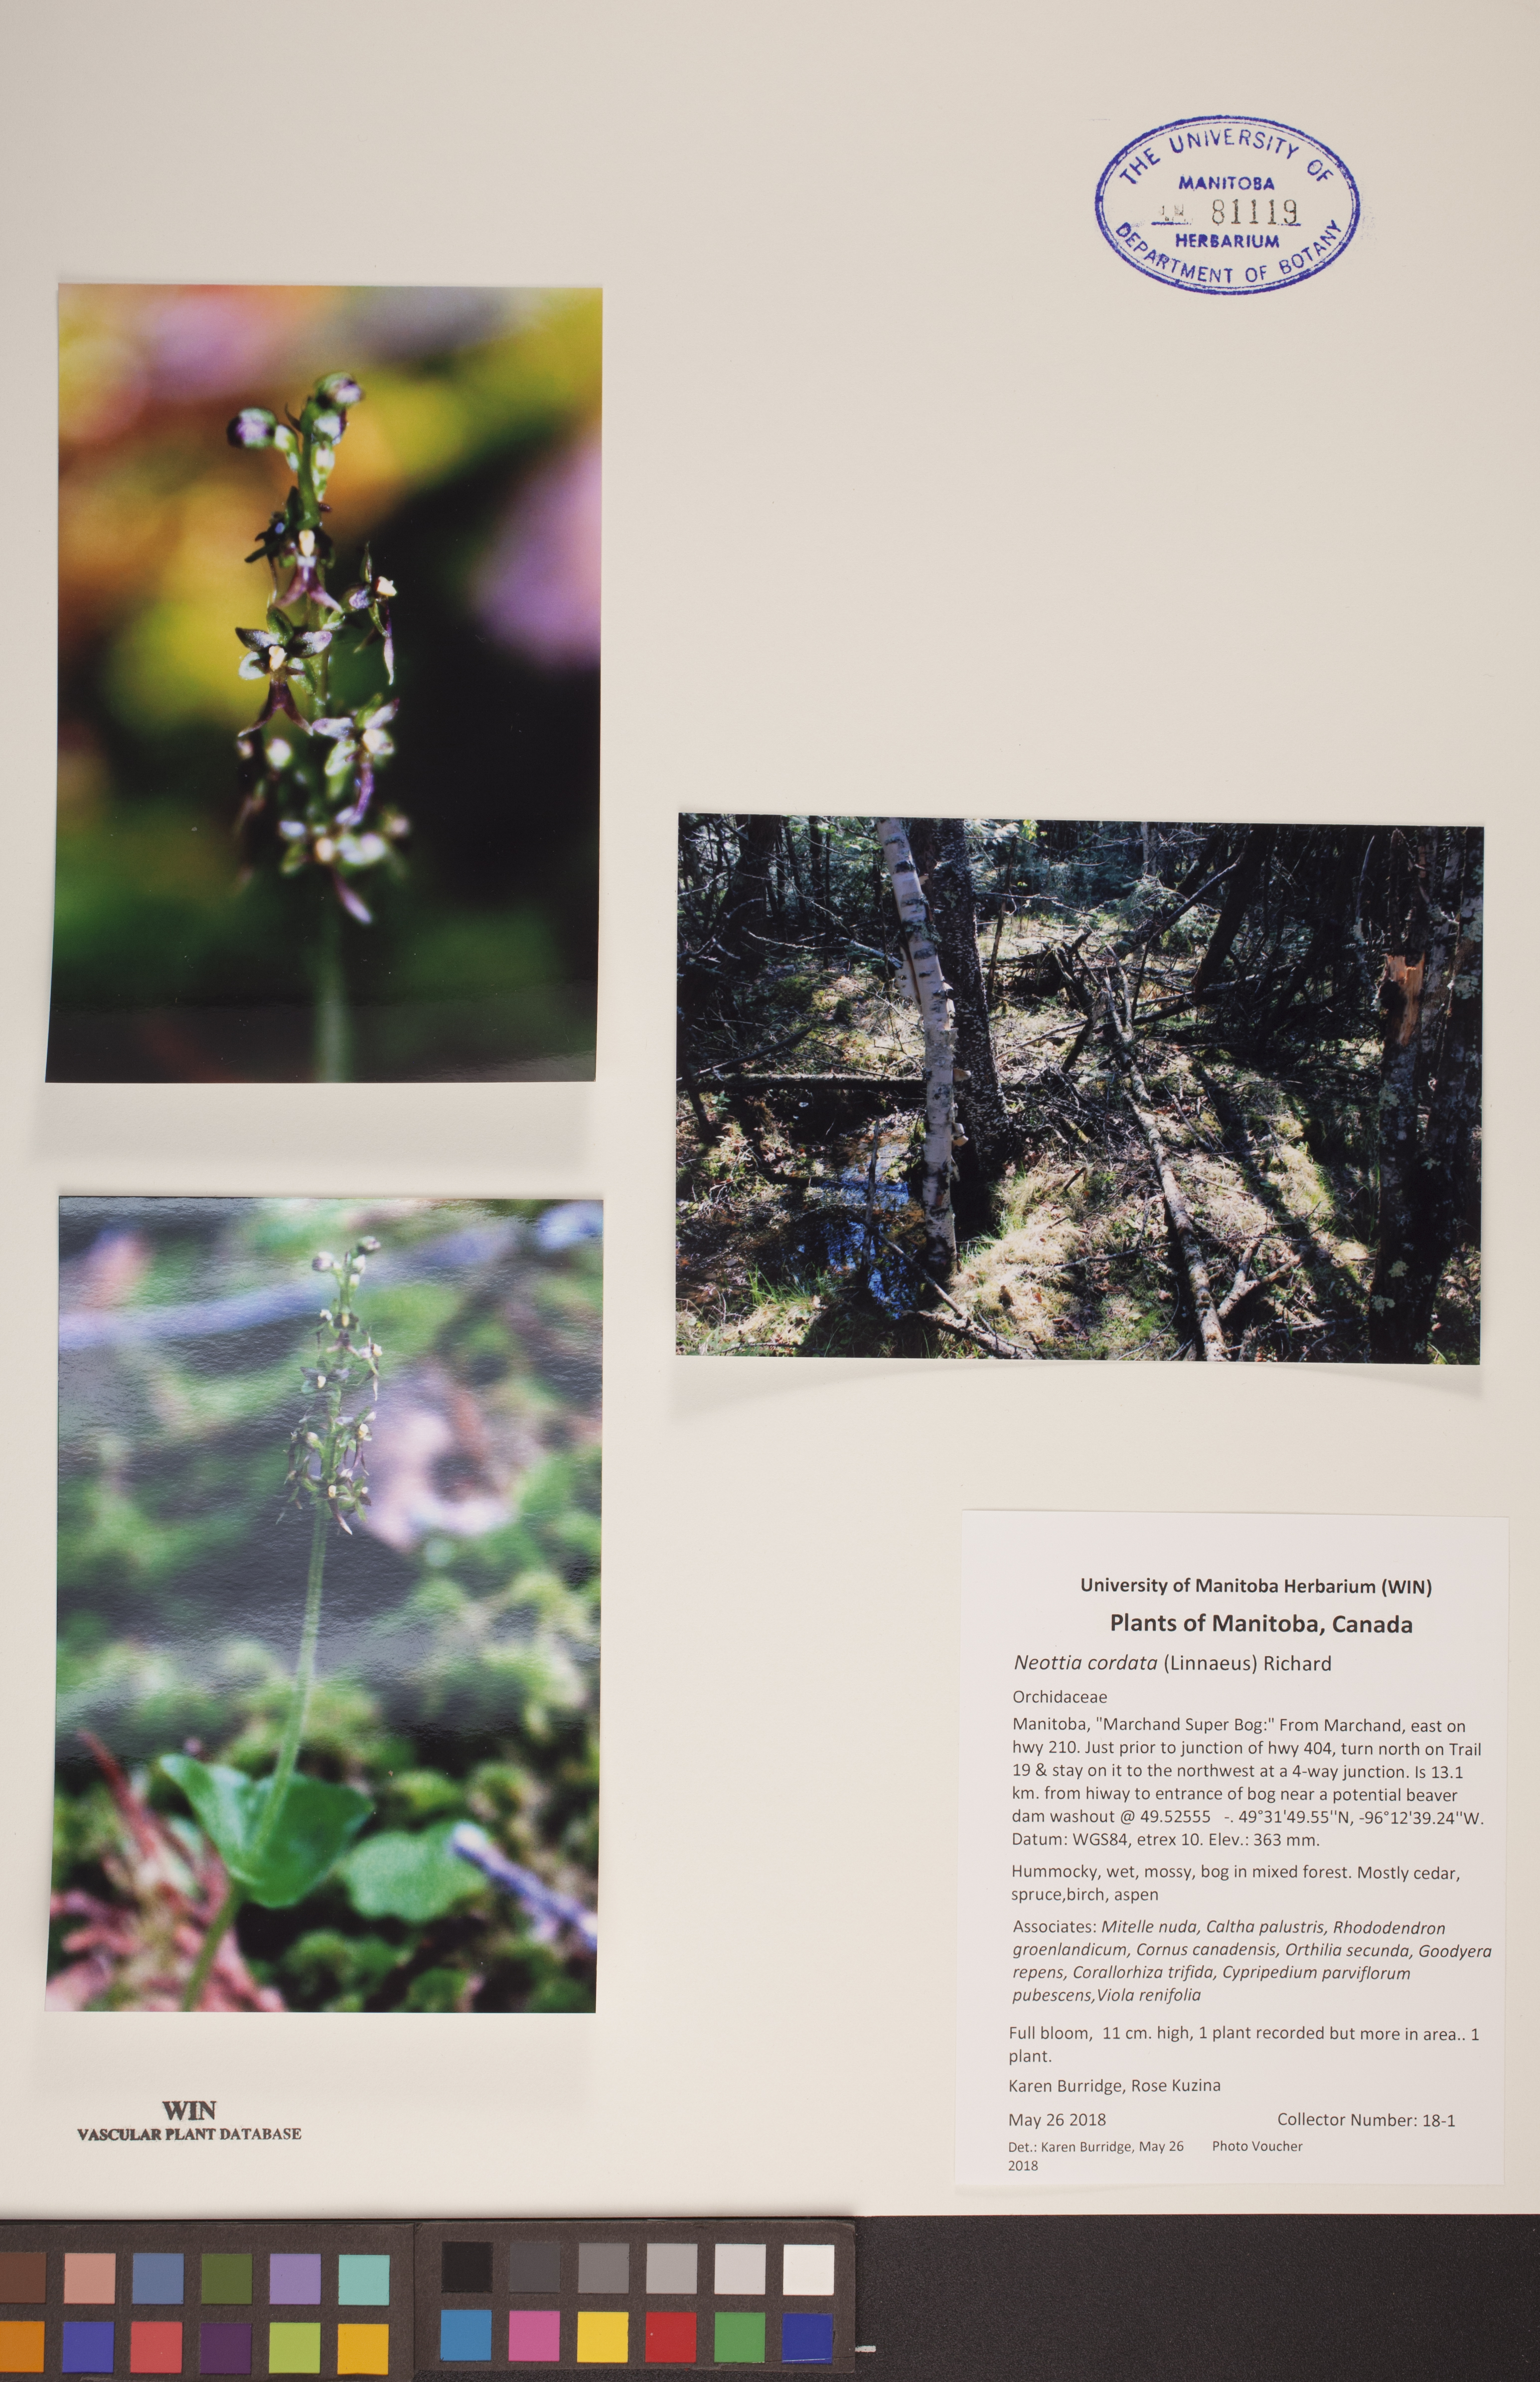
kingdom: Plantae
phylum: Tracheophyta
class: Liliopsida
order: Asparagales
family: Orchidaceae
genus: Neottia
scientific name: Neottia cordata
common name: Lesser twayblade
